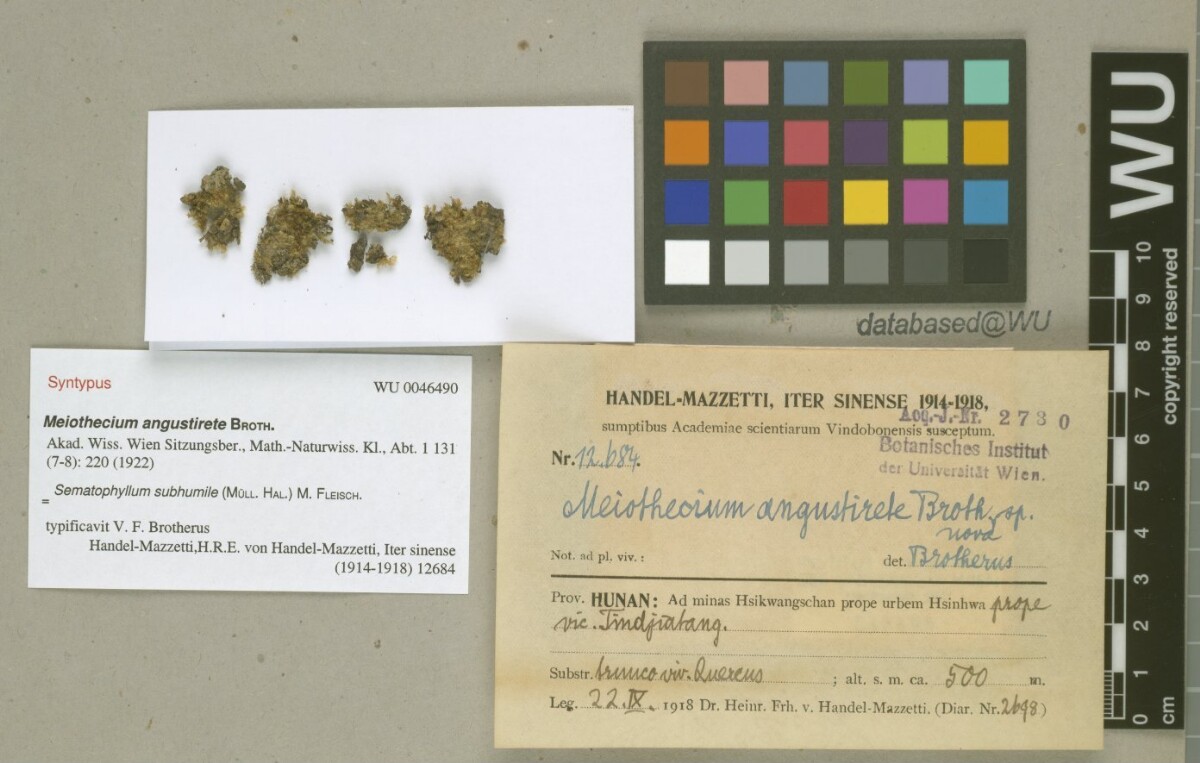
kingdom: Plantae
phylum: Bryophyta
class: Bryopsida
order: Hypnales
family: Sematophyllaceae
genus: Sematophyllum
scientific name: Sematophyllum subhumile
